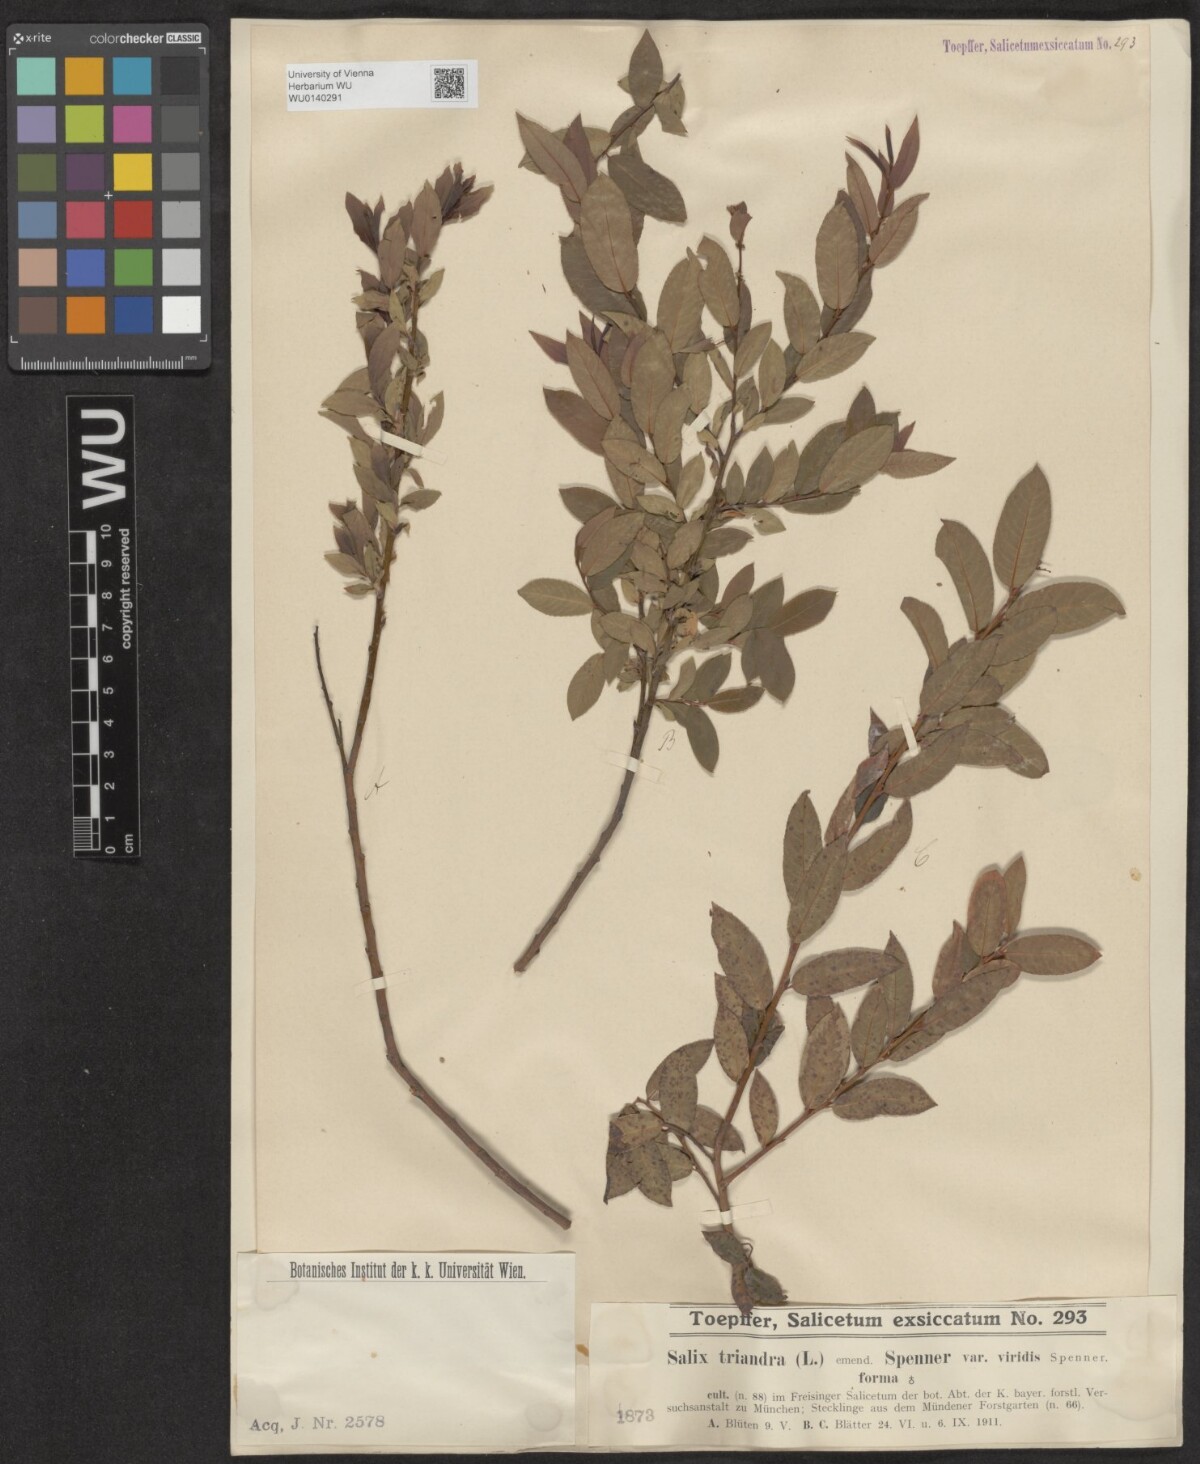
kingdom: Plantae
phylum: Tracheophyta
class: Magnoliopsida
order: Malpighiales
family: Salicaceae
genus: Salix
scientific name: Salix triandra
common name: Almond willow
